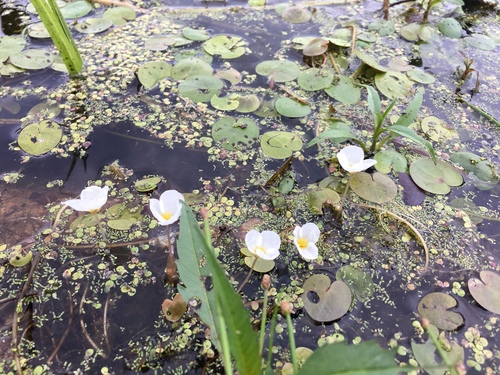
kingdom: Plantae
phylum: Tracheophyta
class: Liliopsida
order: Alismatales
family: Hydrocharitaceae
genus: Hydrocharis
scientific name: Hydrocharis morsus-ranae
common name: European frog-bit
